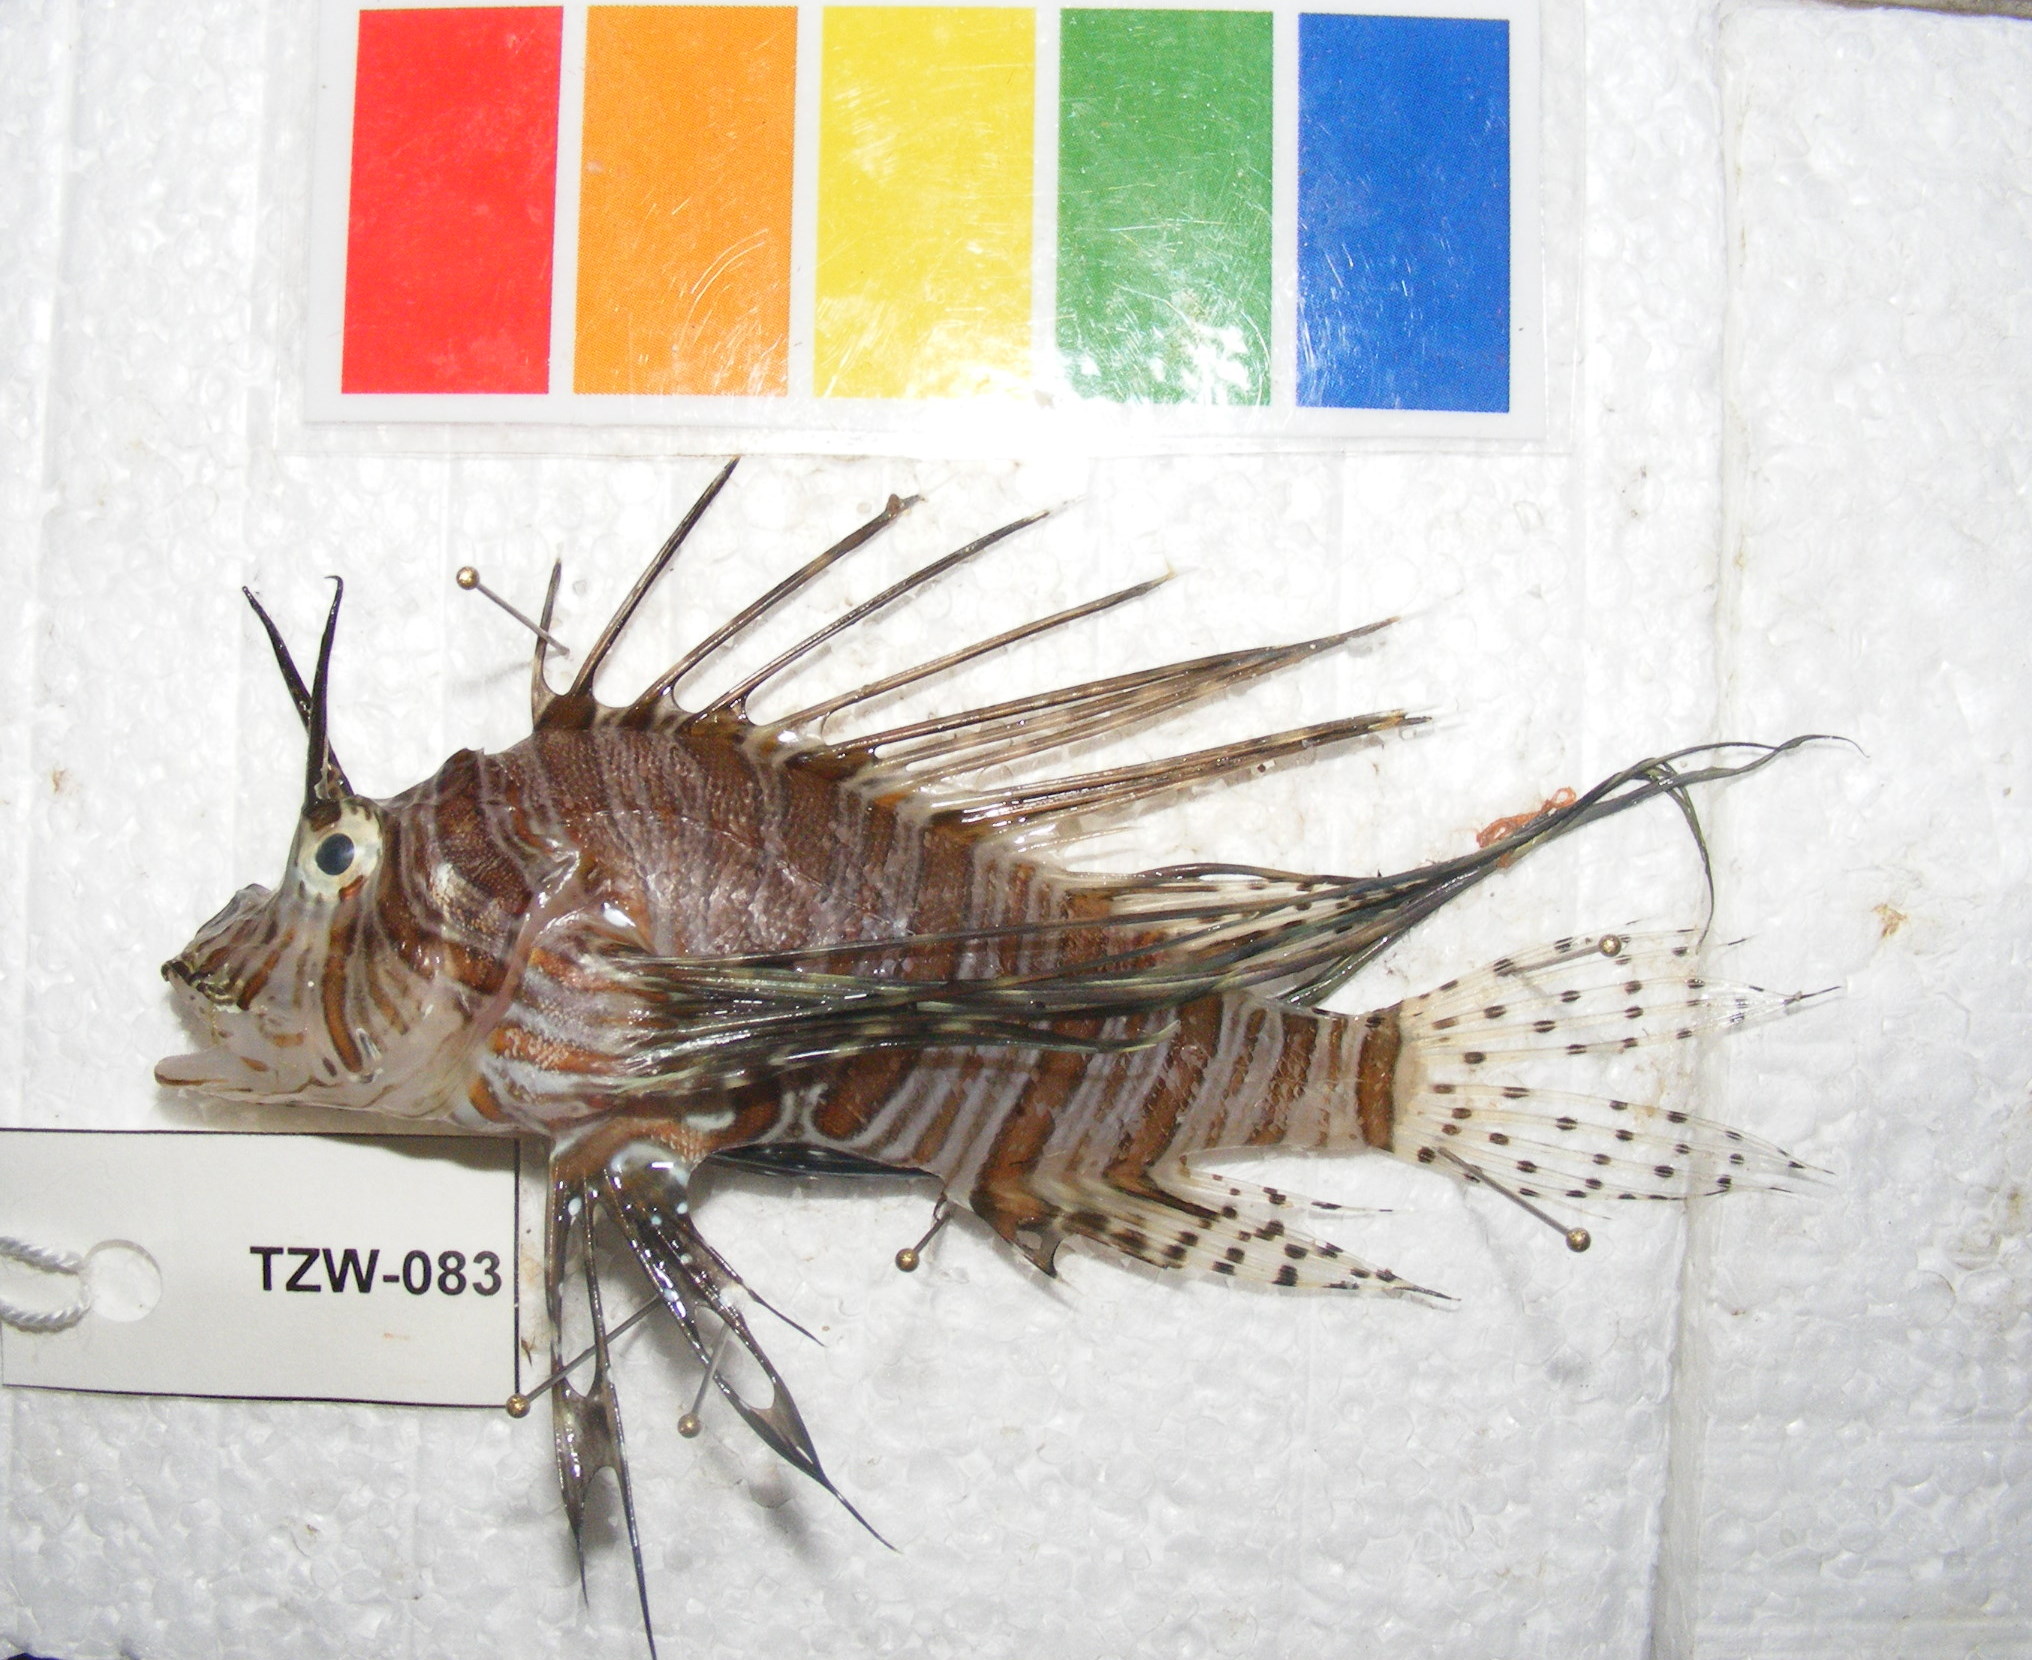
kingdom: Animalia
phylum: Chordata
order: Scorpaeniformes
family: Scorpaenidae
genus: Pterois
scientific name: Pterois miles
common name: Devil firefish
